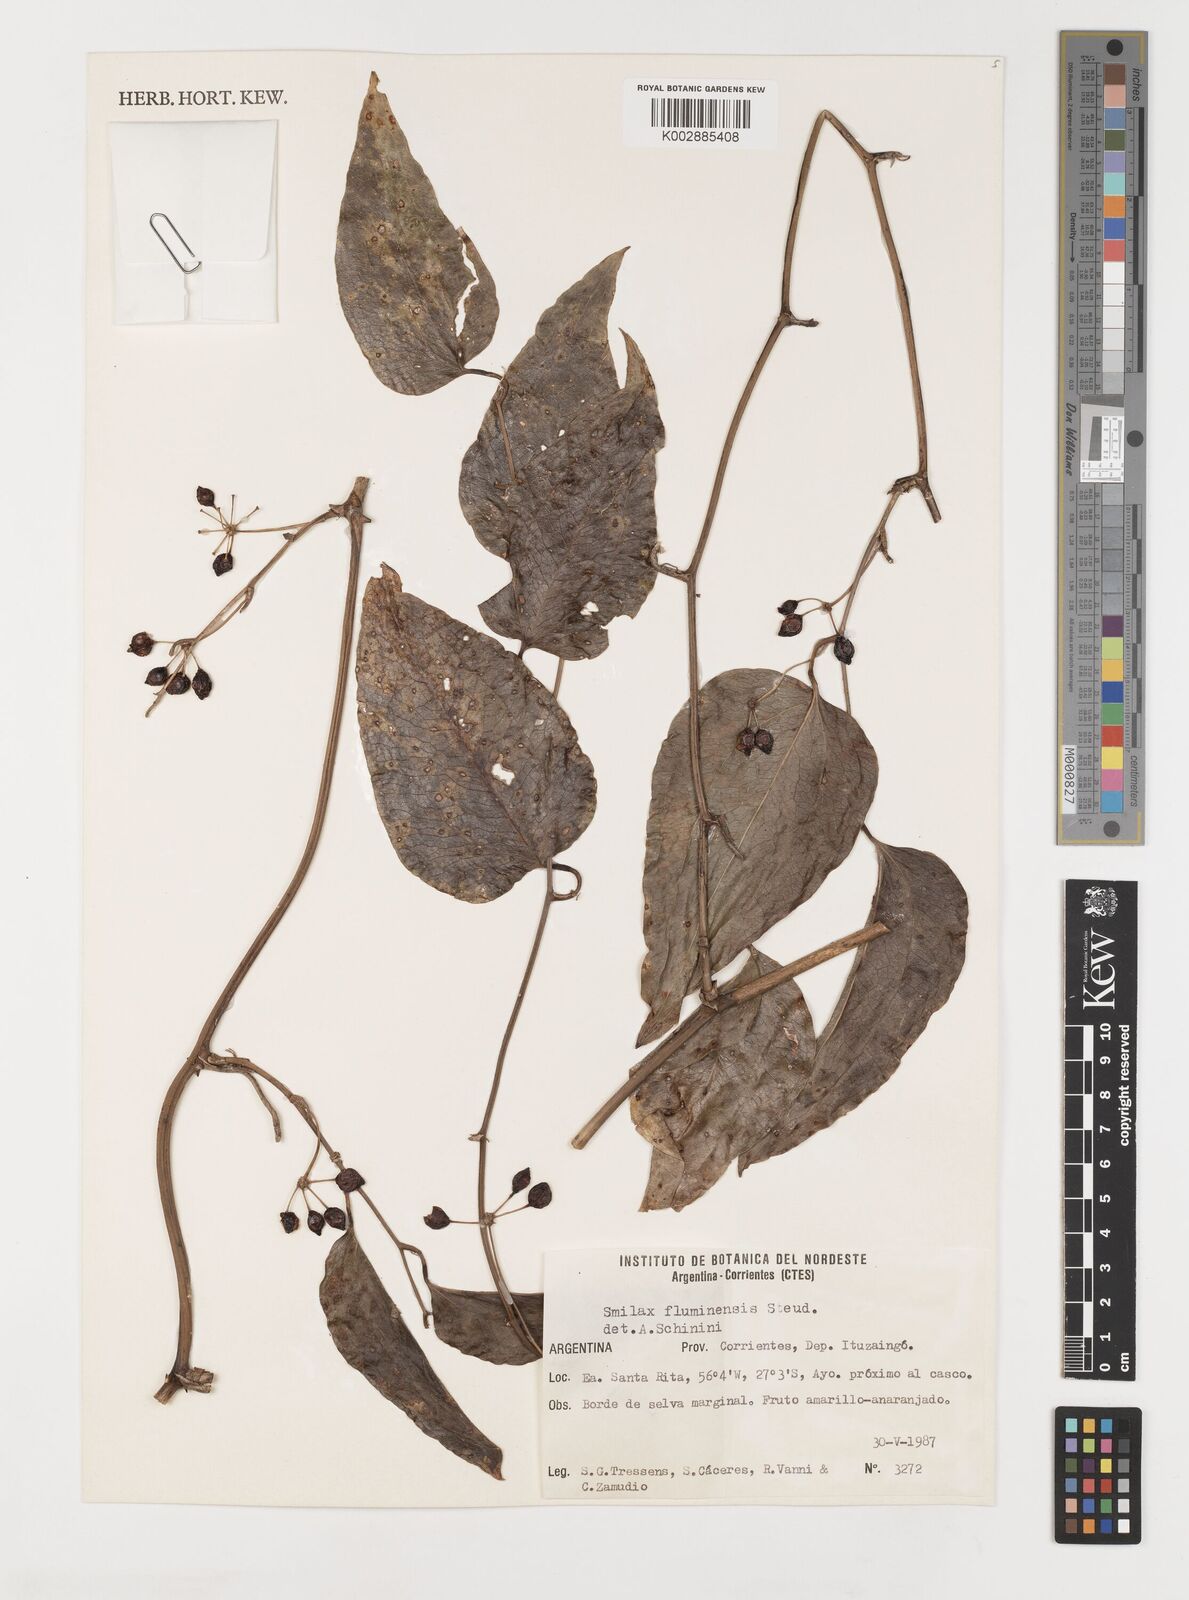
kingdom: Plantae
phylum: Tracheophyta
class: Liliopsida
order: Liliales
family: Smilacaceae
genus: Smilax
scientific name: Smilax fluminensis
